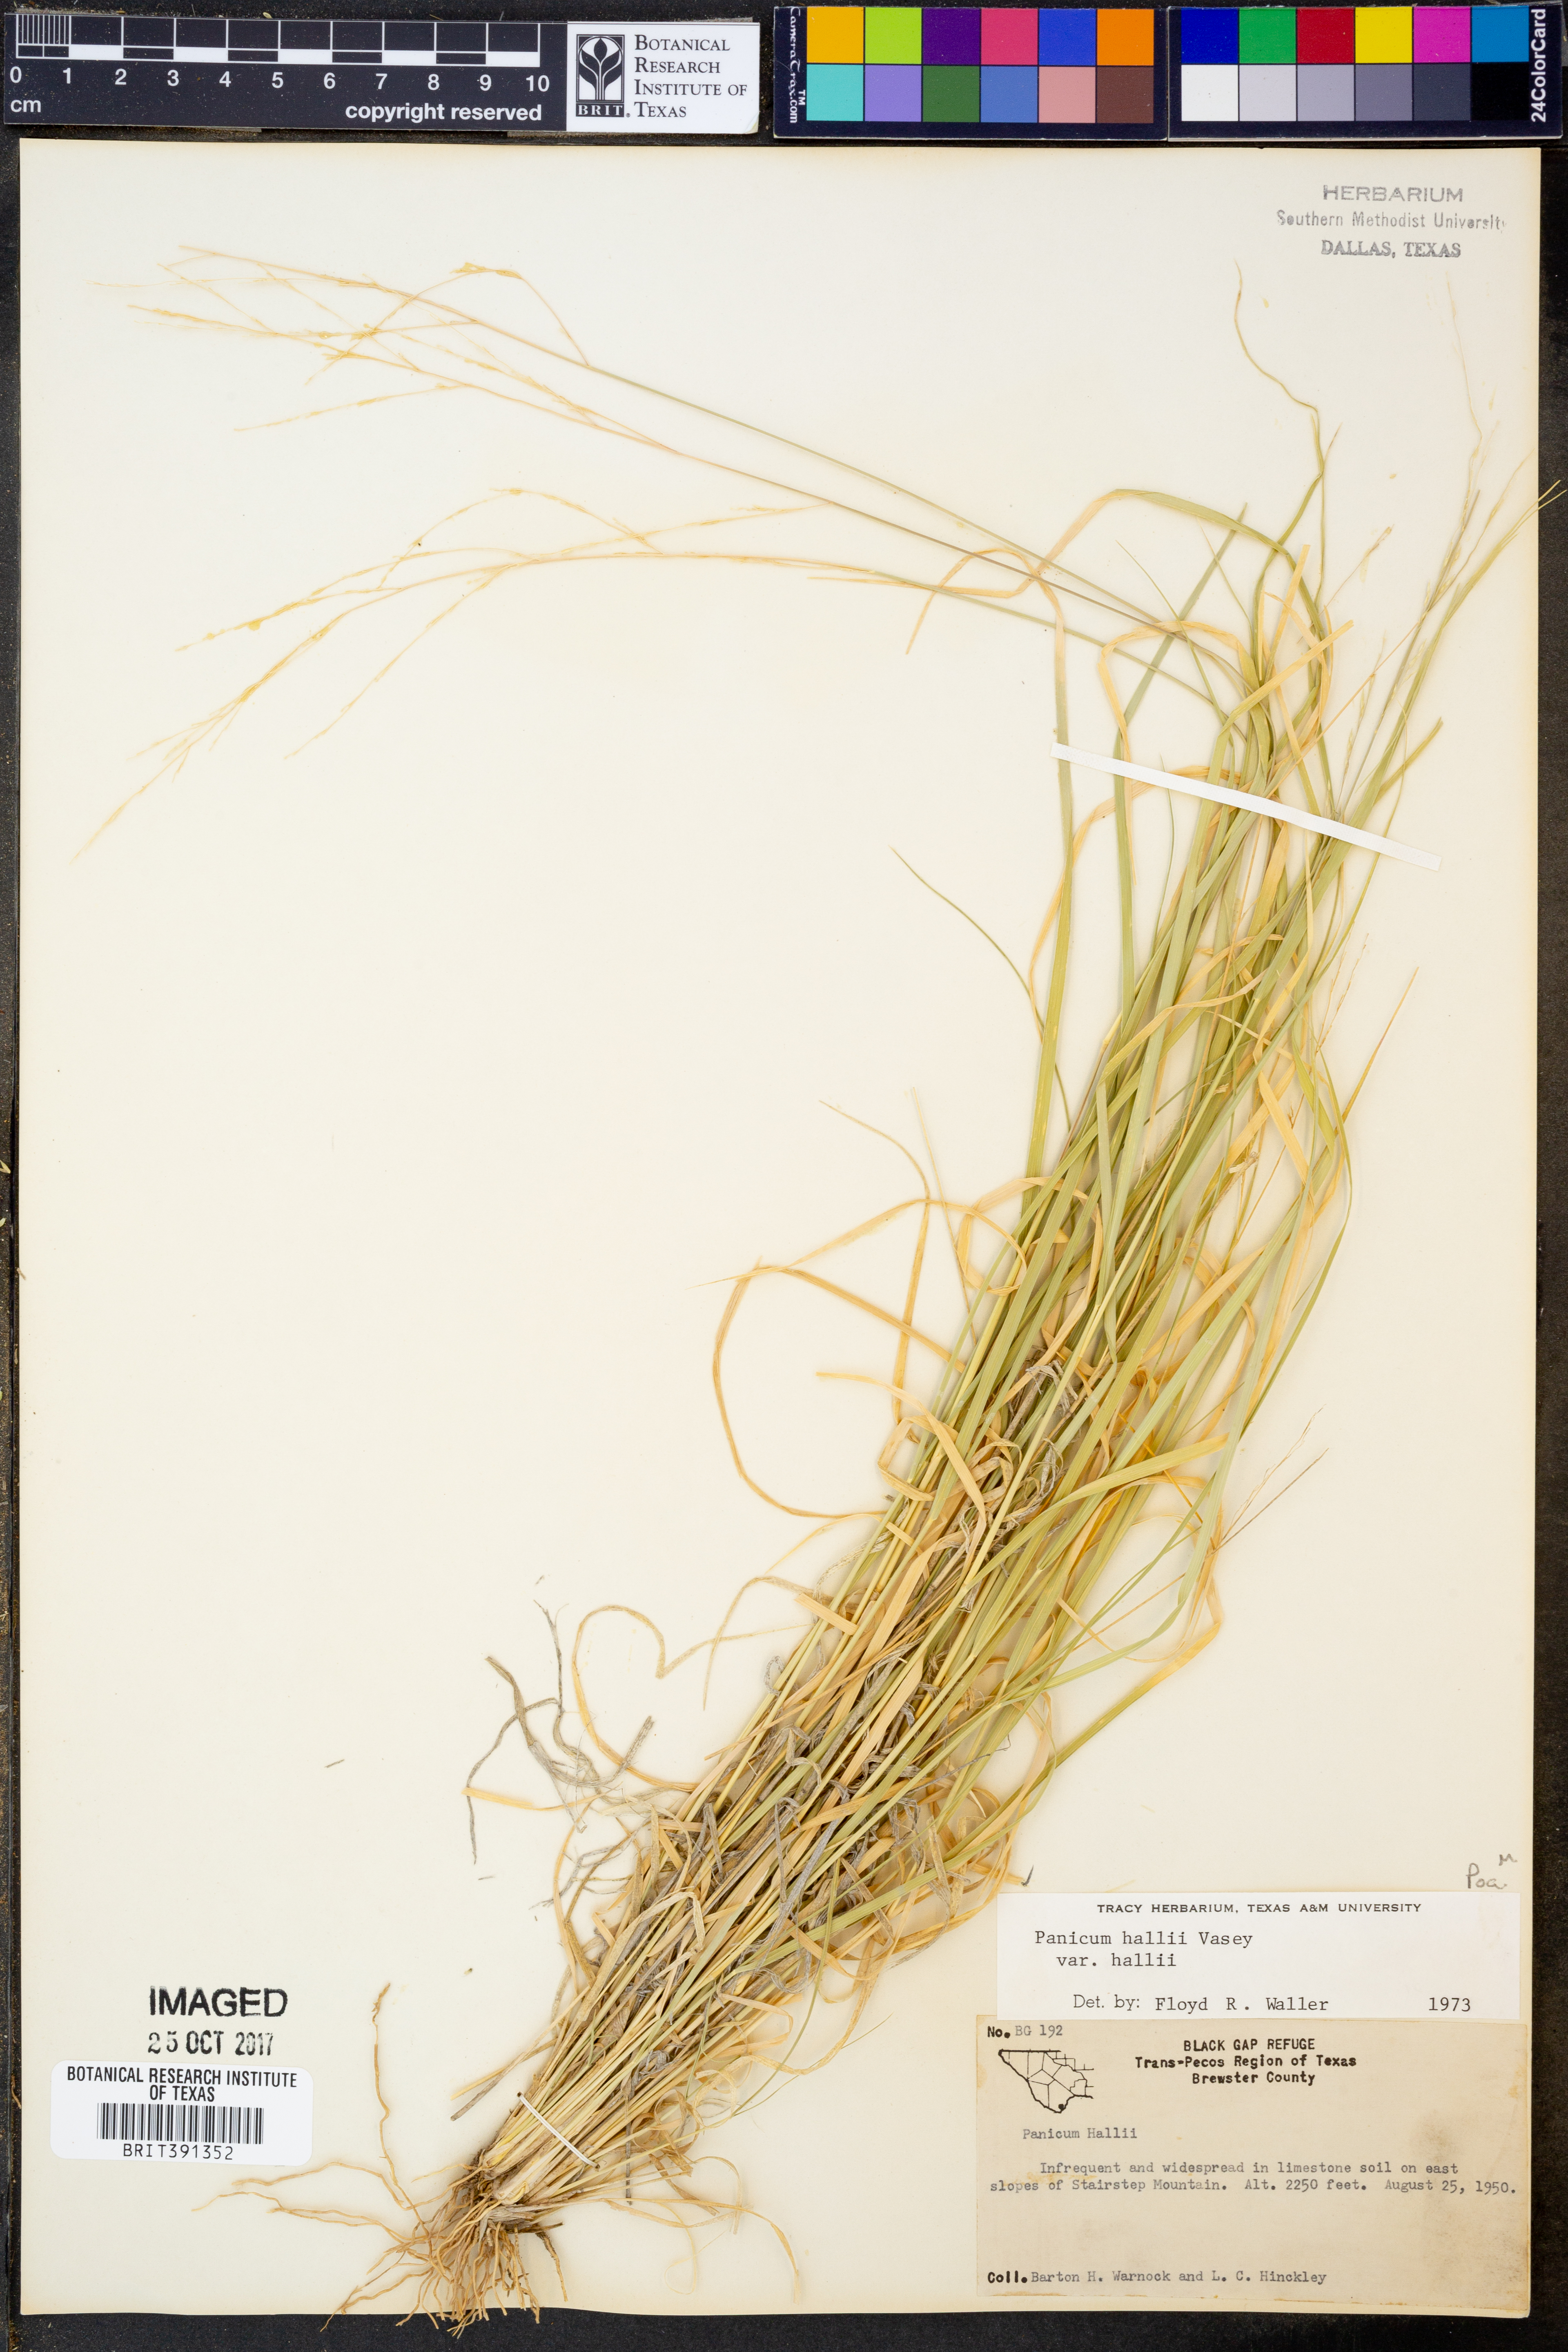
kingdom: Plantae
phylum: Tracheophyta
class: Liliopsida
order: Poales
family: Poaceae
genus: Panicum
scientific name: Panicum hallii
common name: Hall's witchgrass
